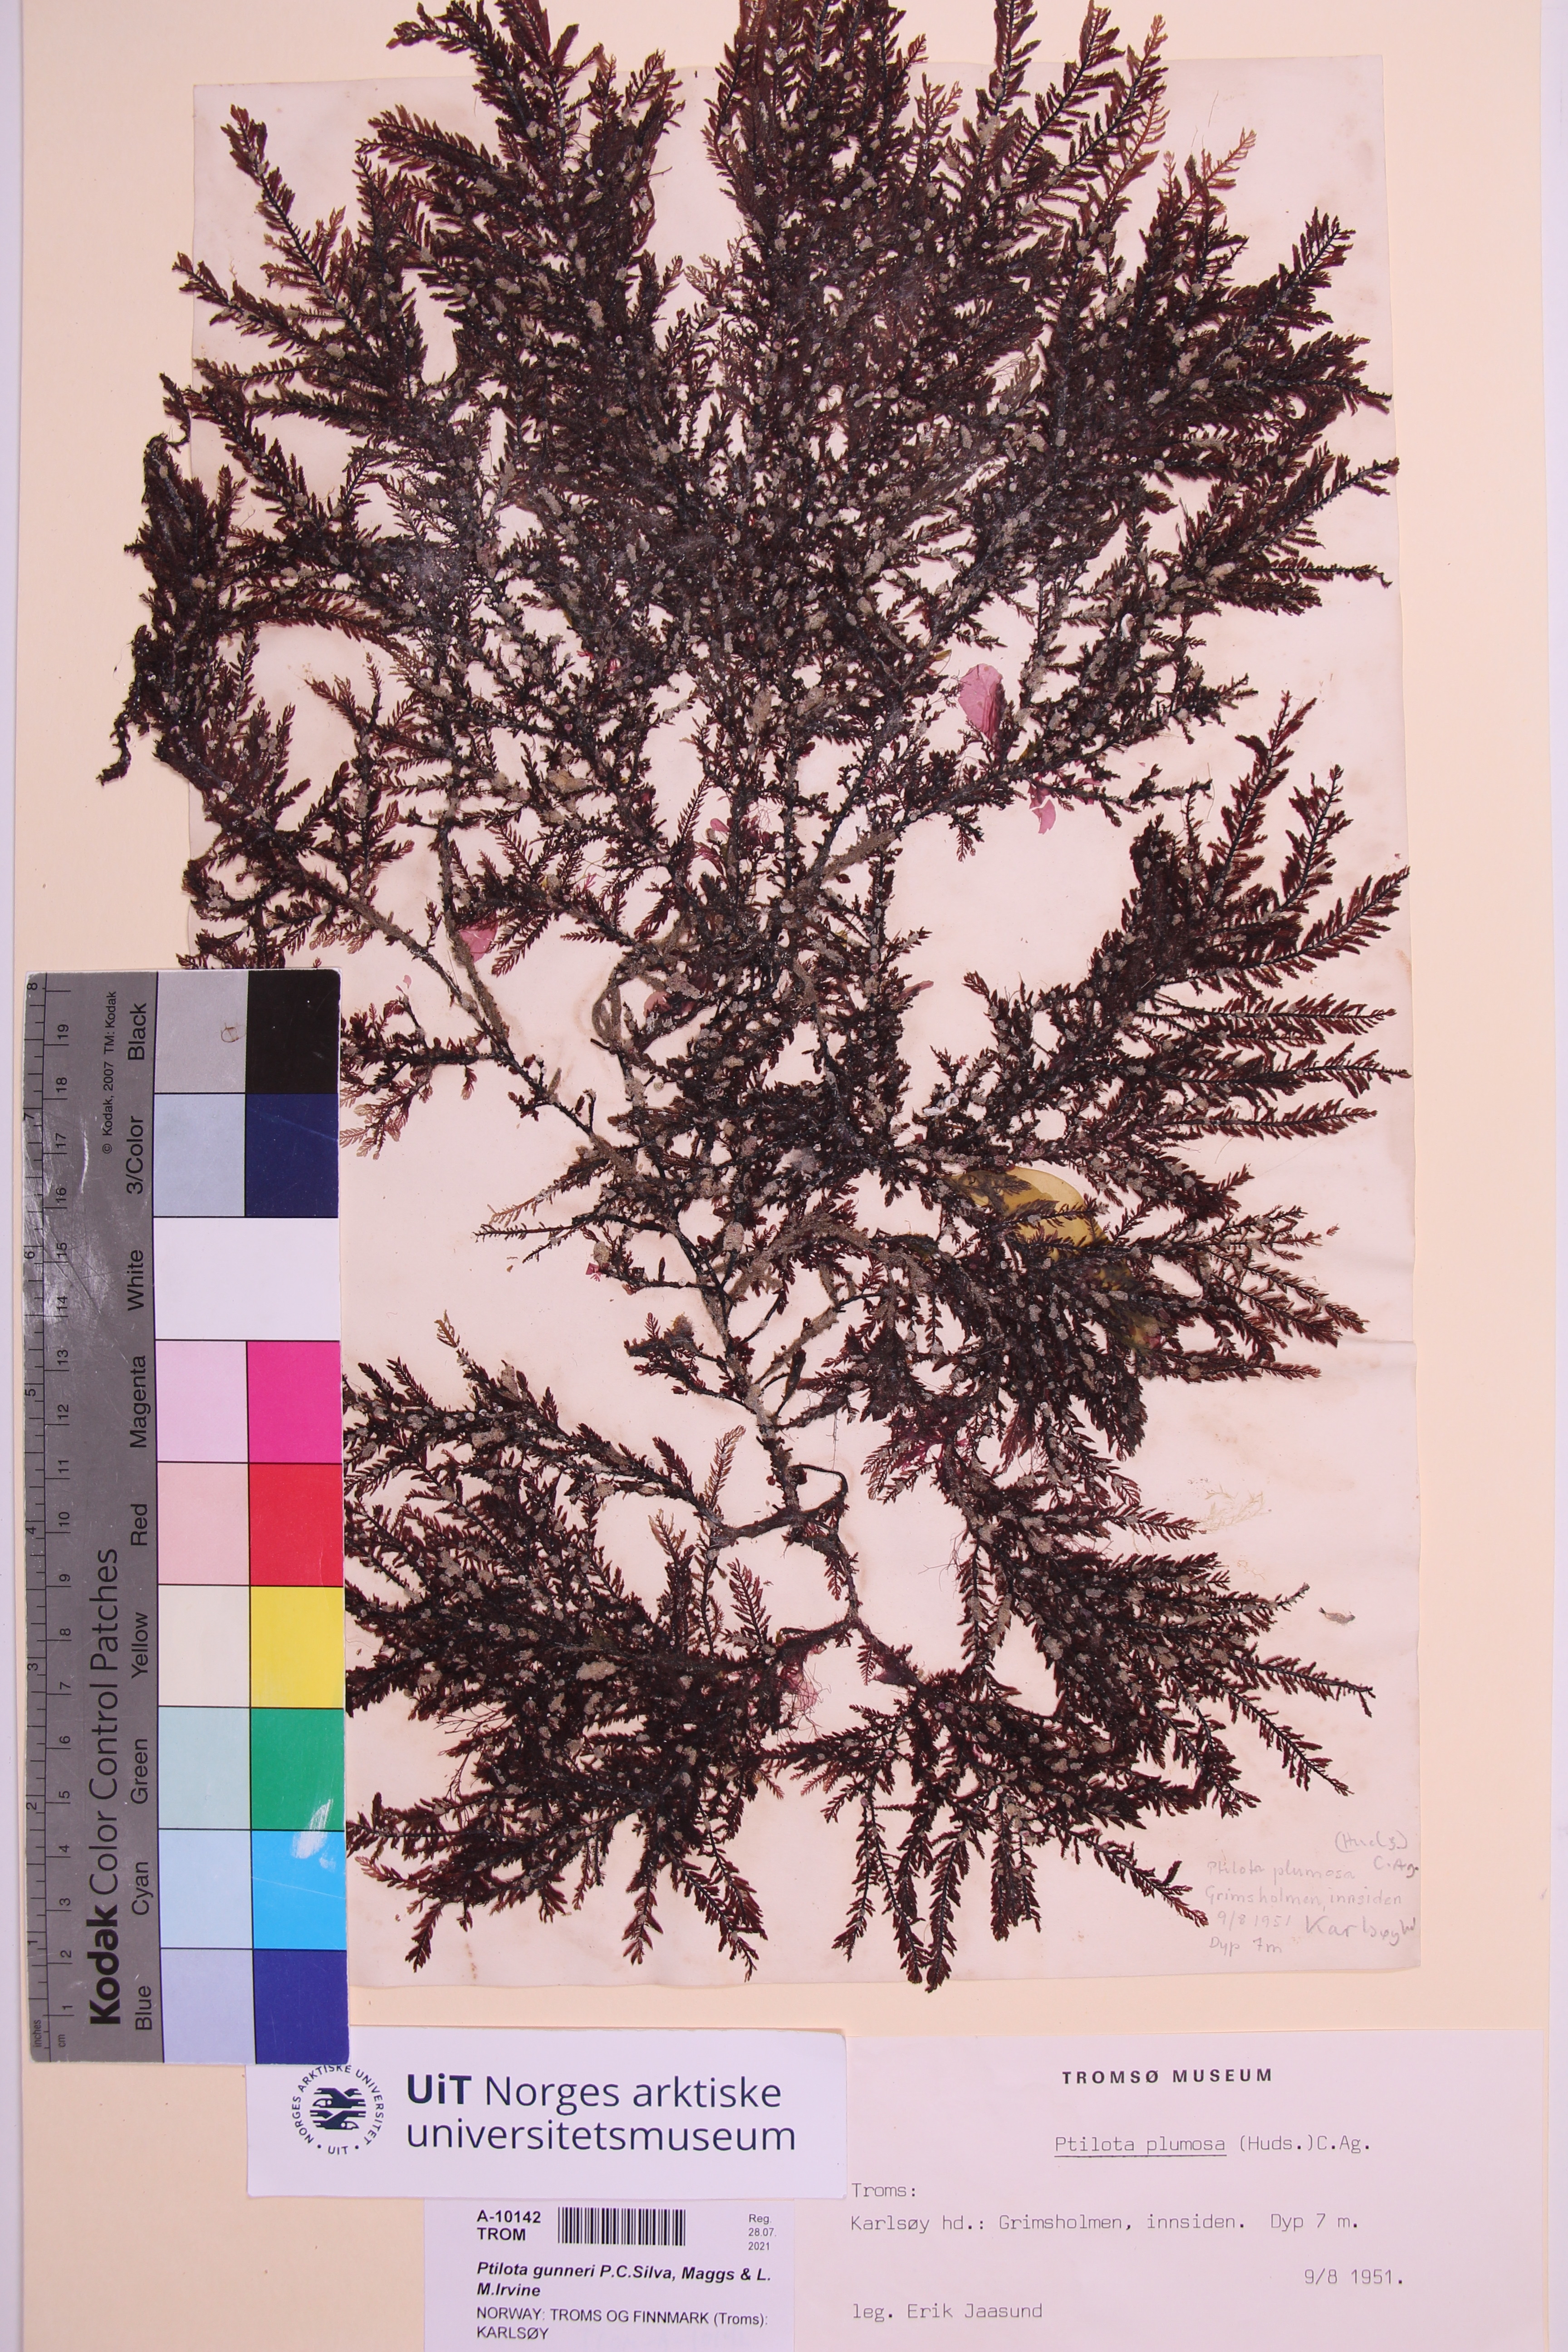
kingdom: Plantae
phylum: Rhodophyta
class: Florideophyceae
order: Ceramiales
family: Wrangeliaceae
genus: Ptilota
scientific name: Ptilota gunneri
